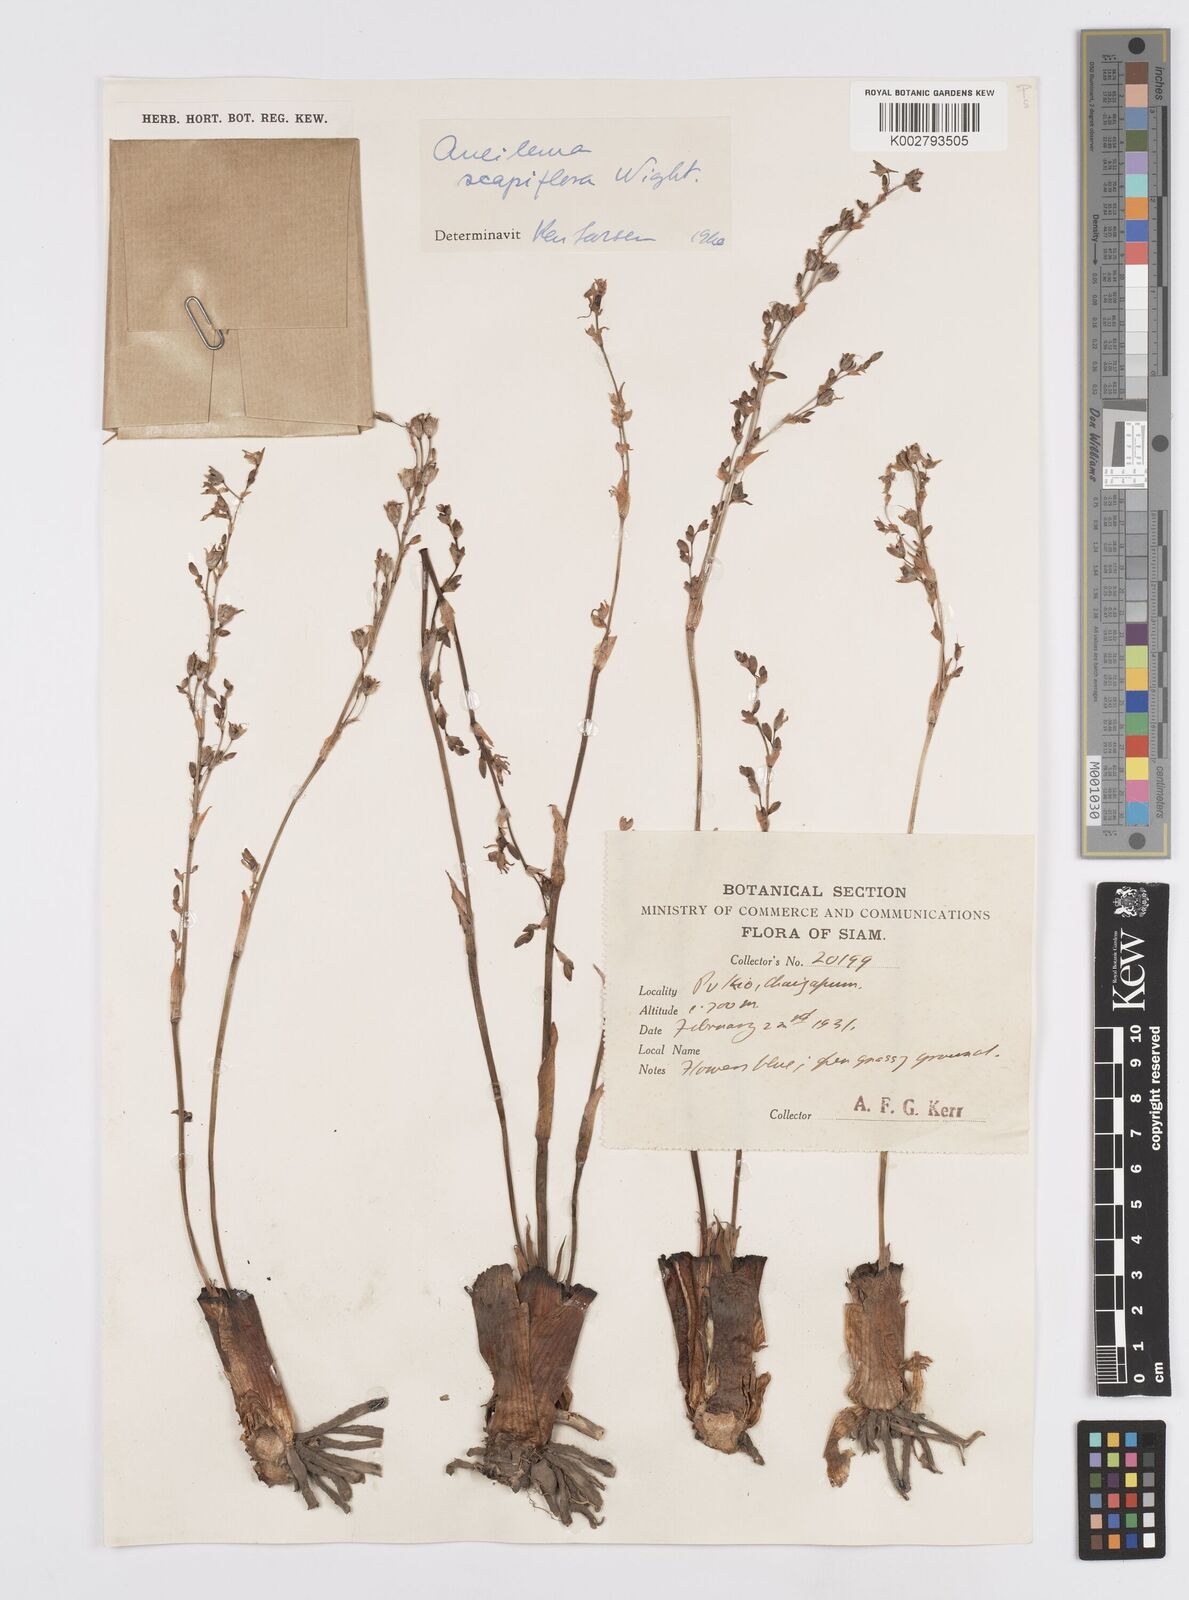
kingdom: Plantae
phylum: Tracheophyta
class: Liliopsida
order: Commelinales
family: Commelinaceae
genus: Murdannia
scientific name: Murdannia edulis
